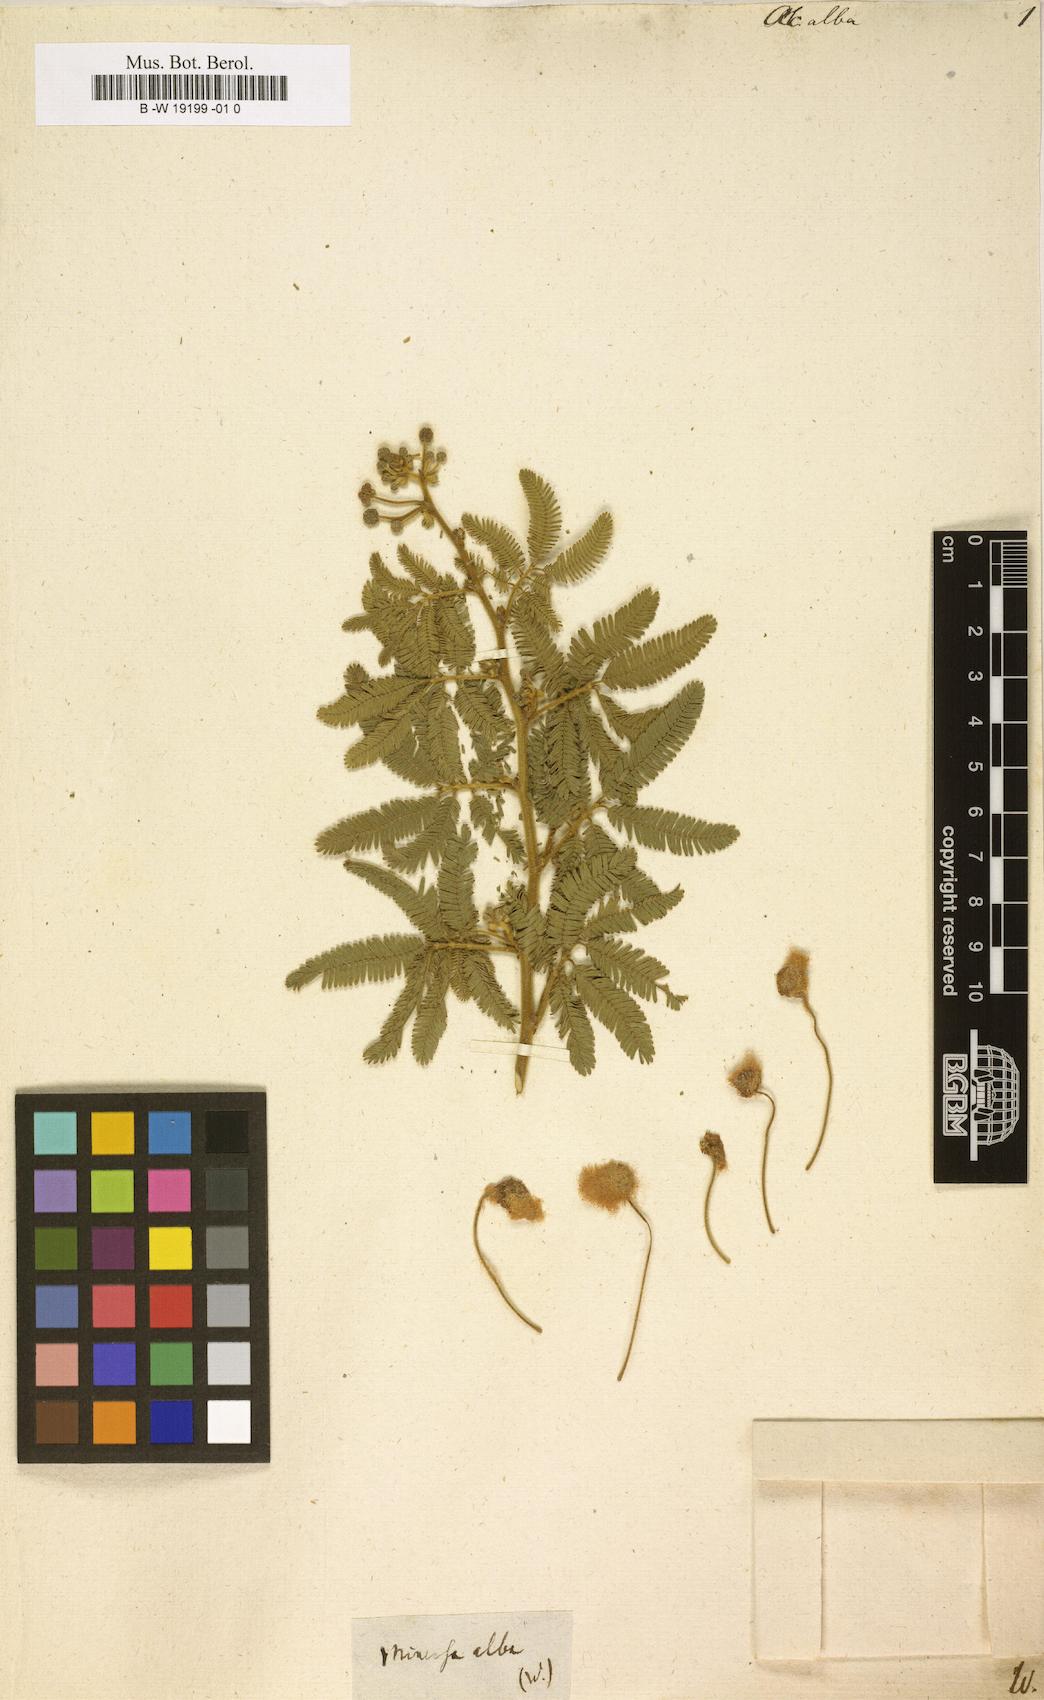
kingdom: Plantae
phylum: Tracheophyta
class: Magnoliopsida
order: Fabales
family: Fabaceae
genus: Vachellia
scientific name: Vachellia leucophloea
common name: Distiller's acacia
